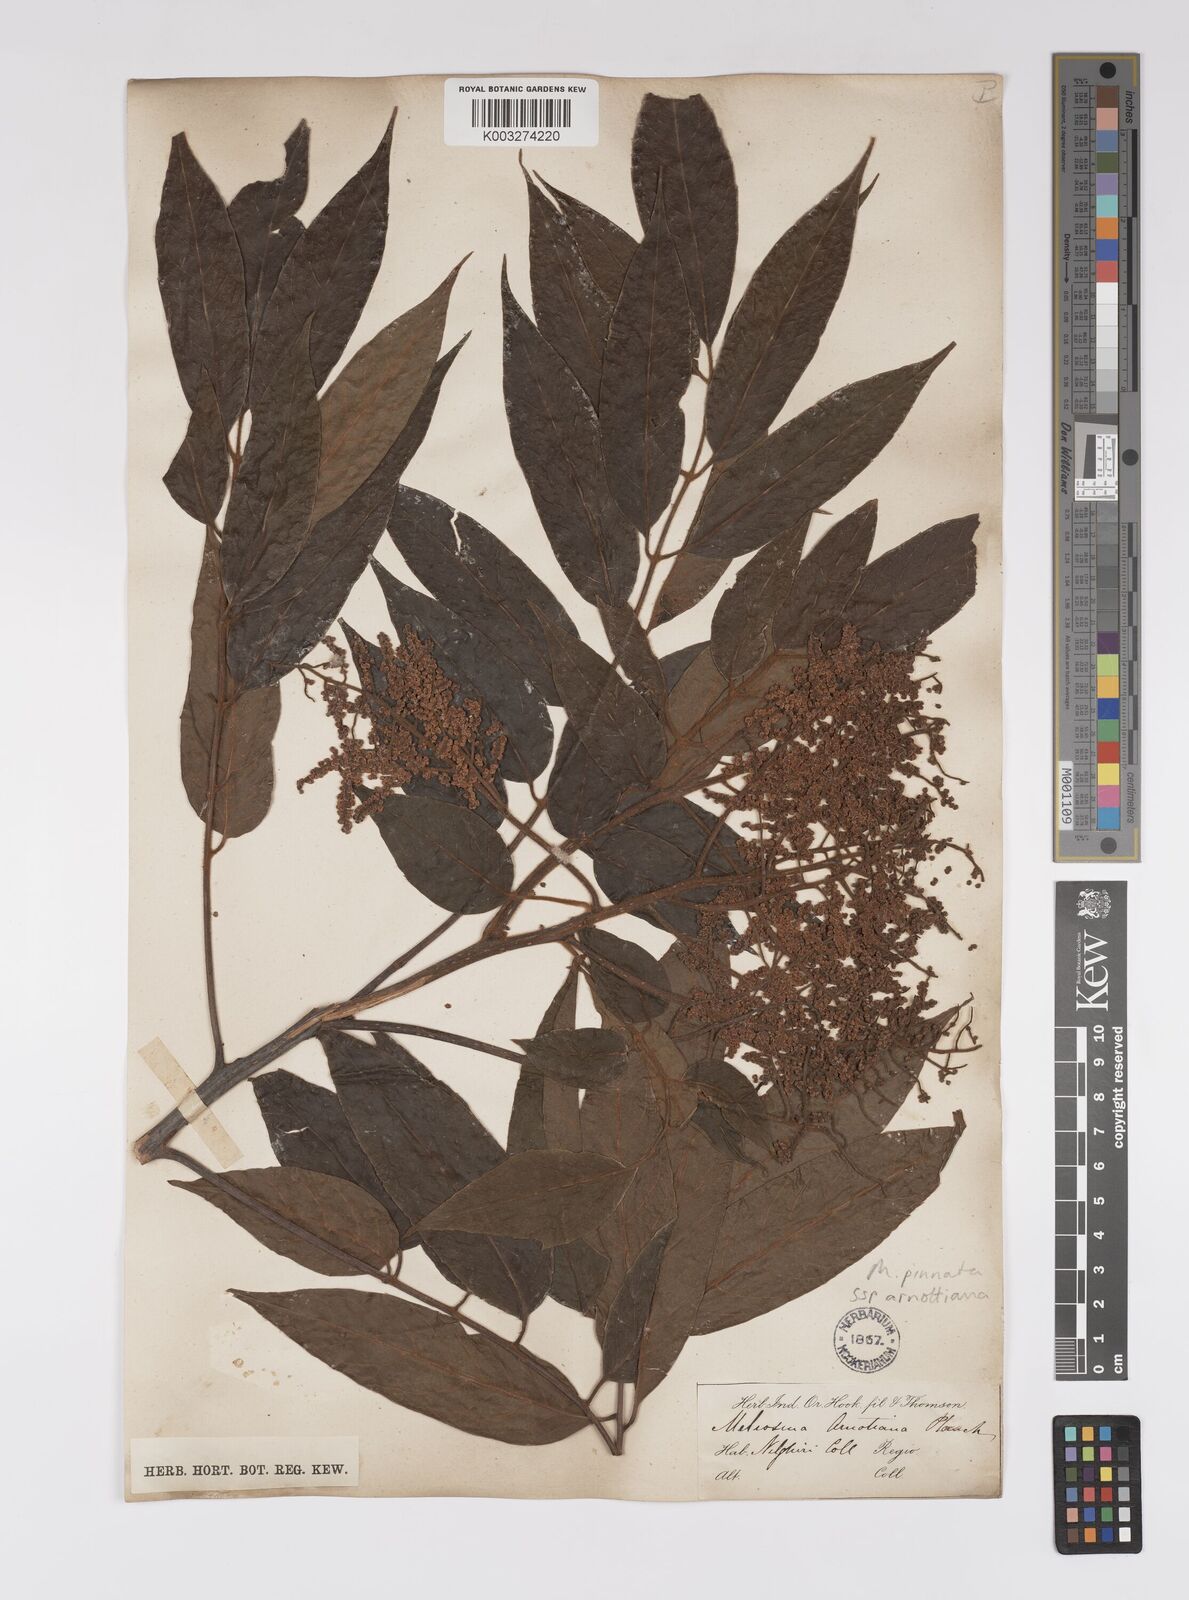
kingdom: Plantae
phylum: Tracheophyta
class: Magnoliopsida
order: Proteales
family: Sabiaceae
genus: Meliosma
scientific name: Meliosma rhoifolia
